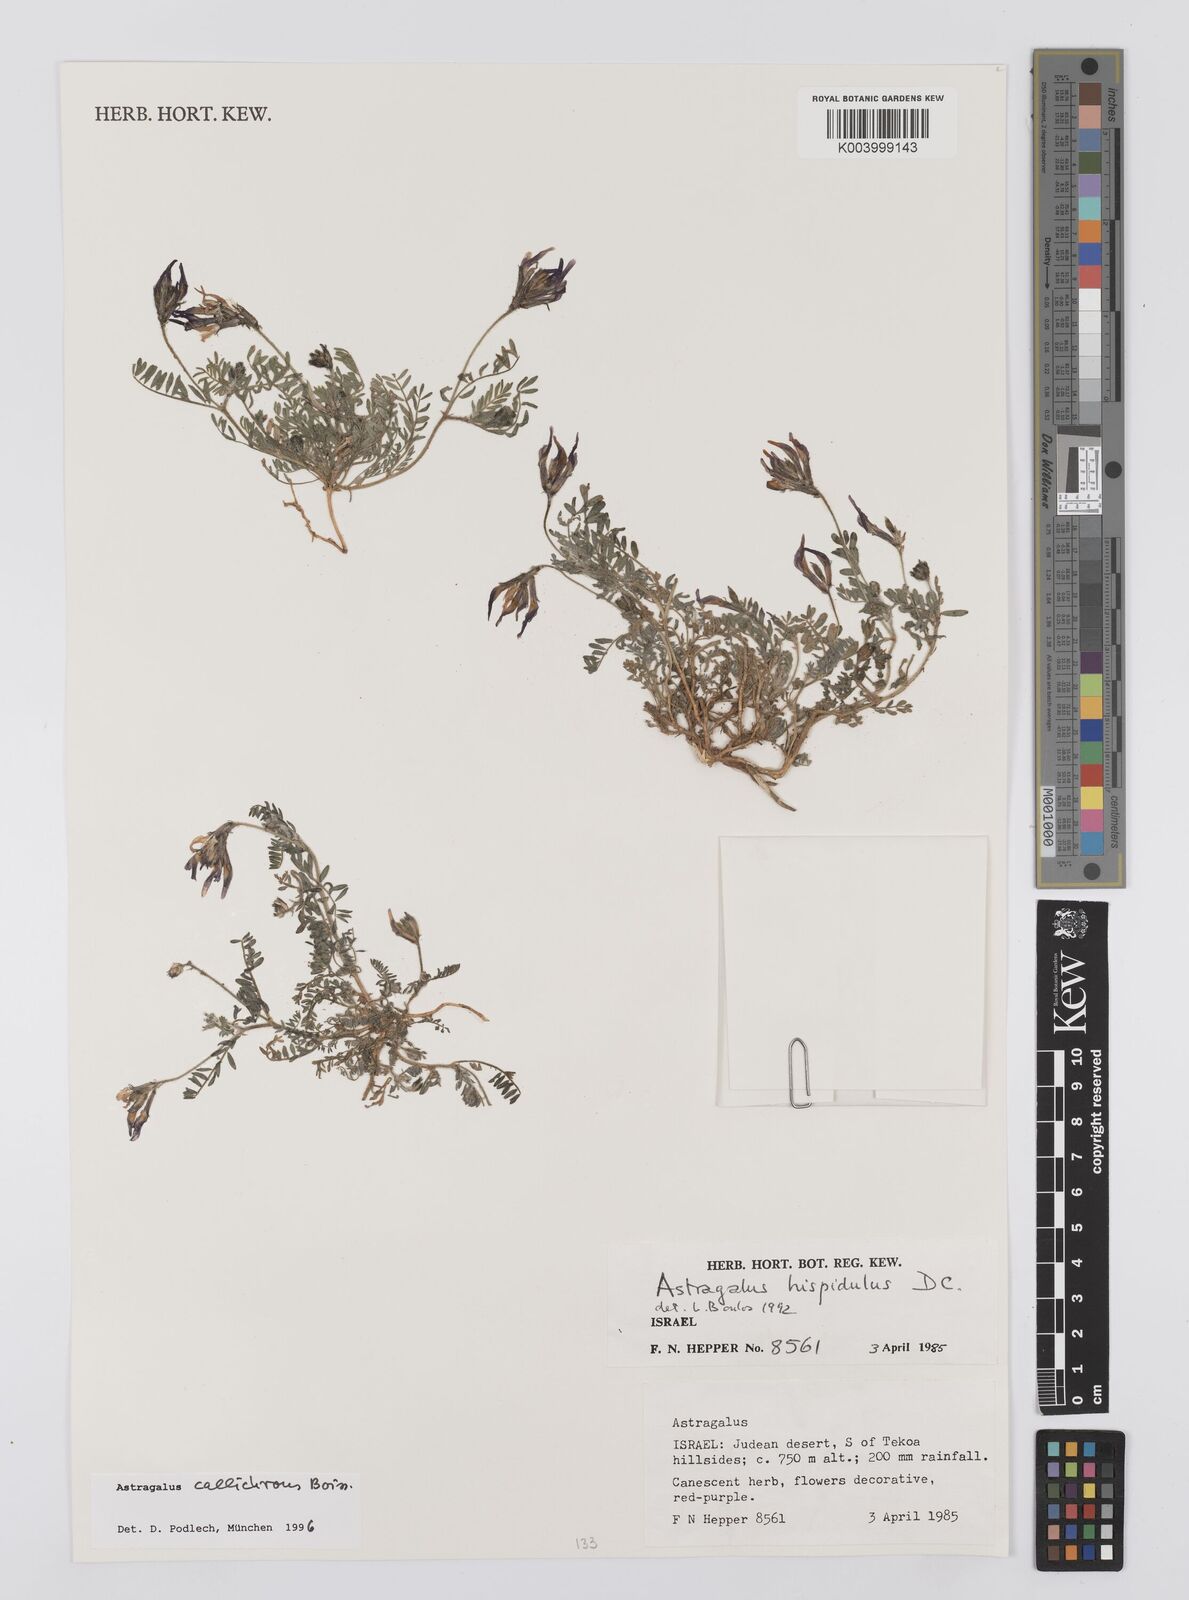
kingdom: Plantae
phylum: Tracheophyta
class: Magnoliopsida
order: Fabales
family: Fabaceae
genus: Astragalus
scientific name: Astragalus callichrous
